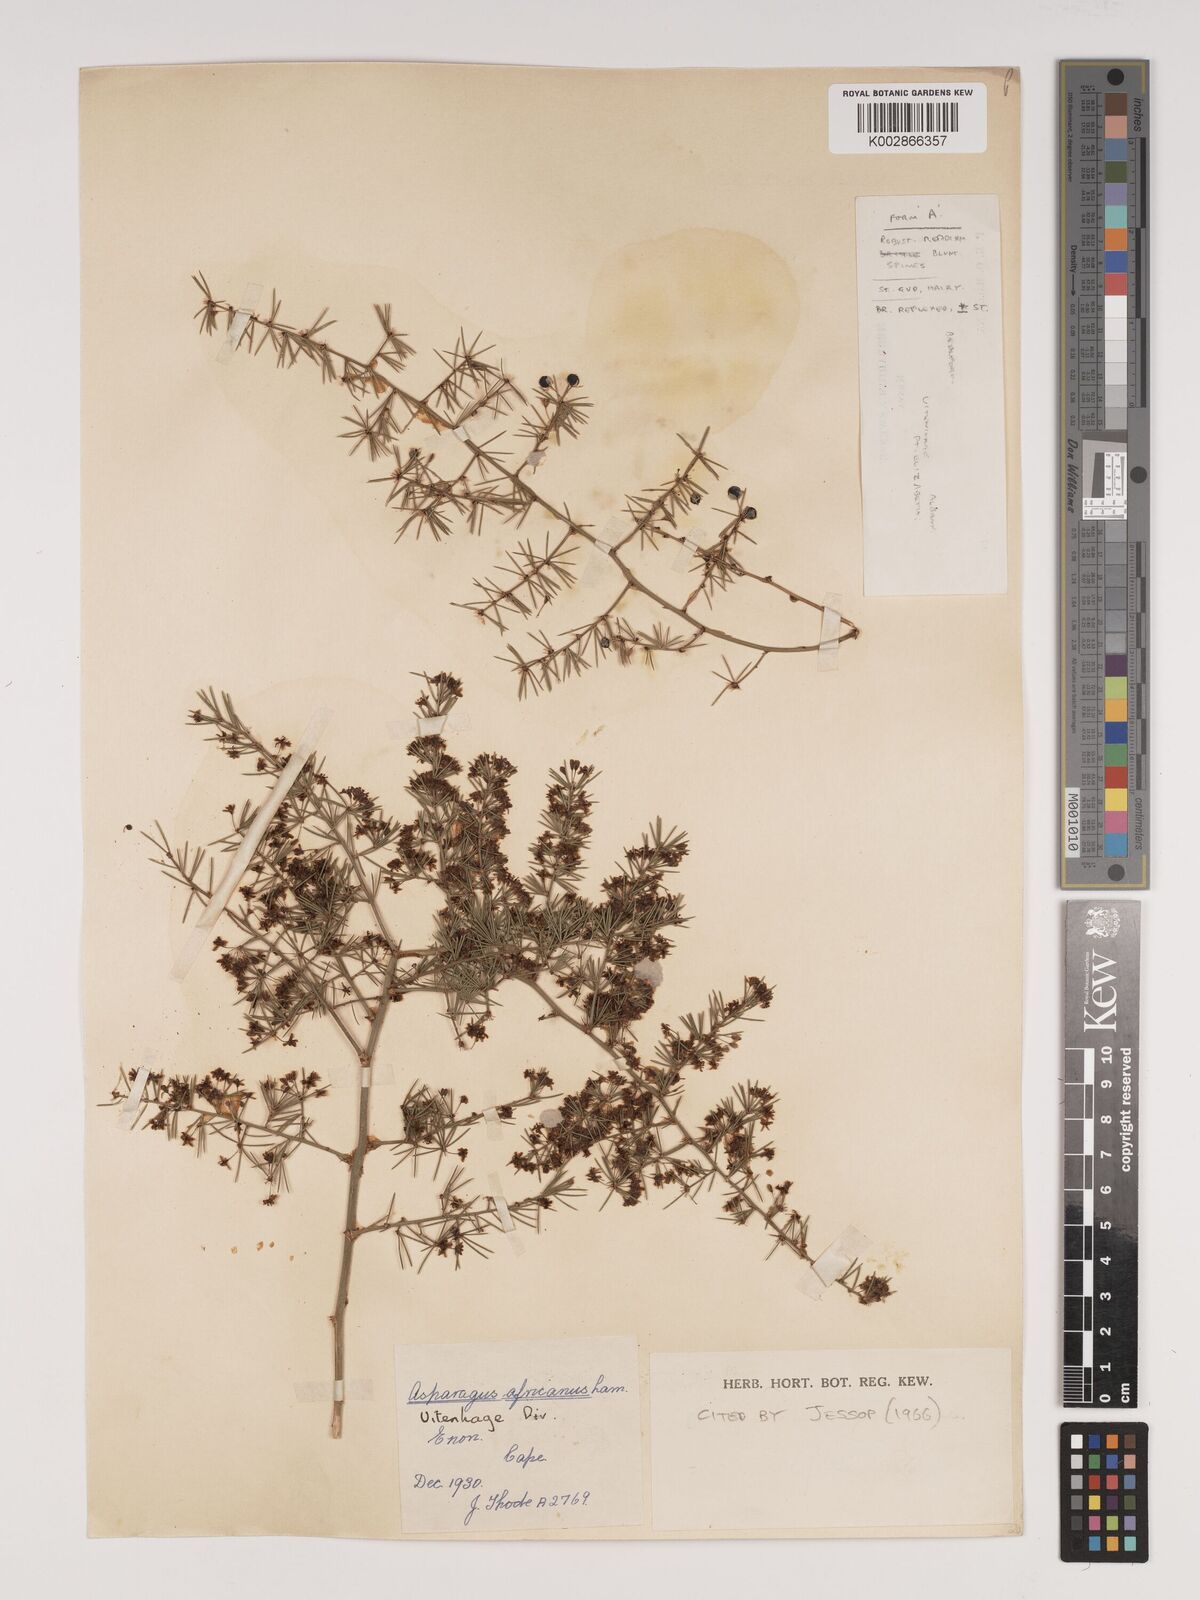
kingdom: Plantae
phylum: Tracheophyta
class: Liliopsida
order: Asparagales
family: Asparagaceae
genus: Asparagus
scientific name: Asparagus africanus
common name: Asparagus-fern
